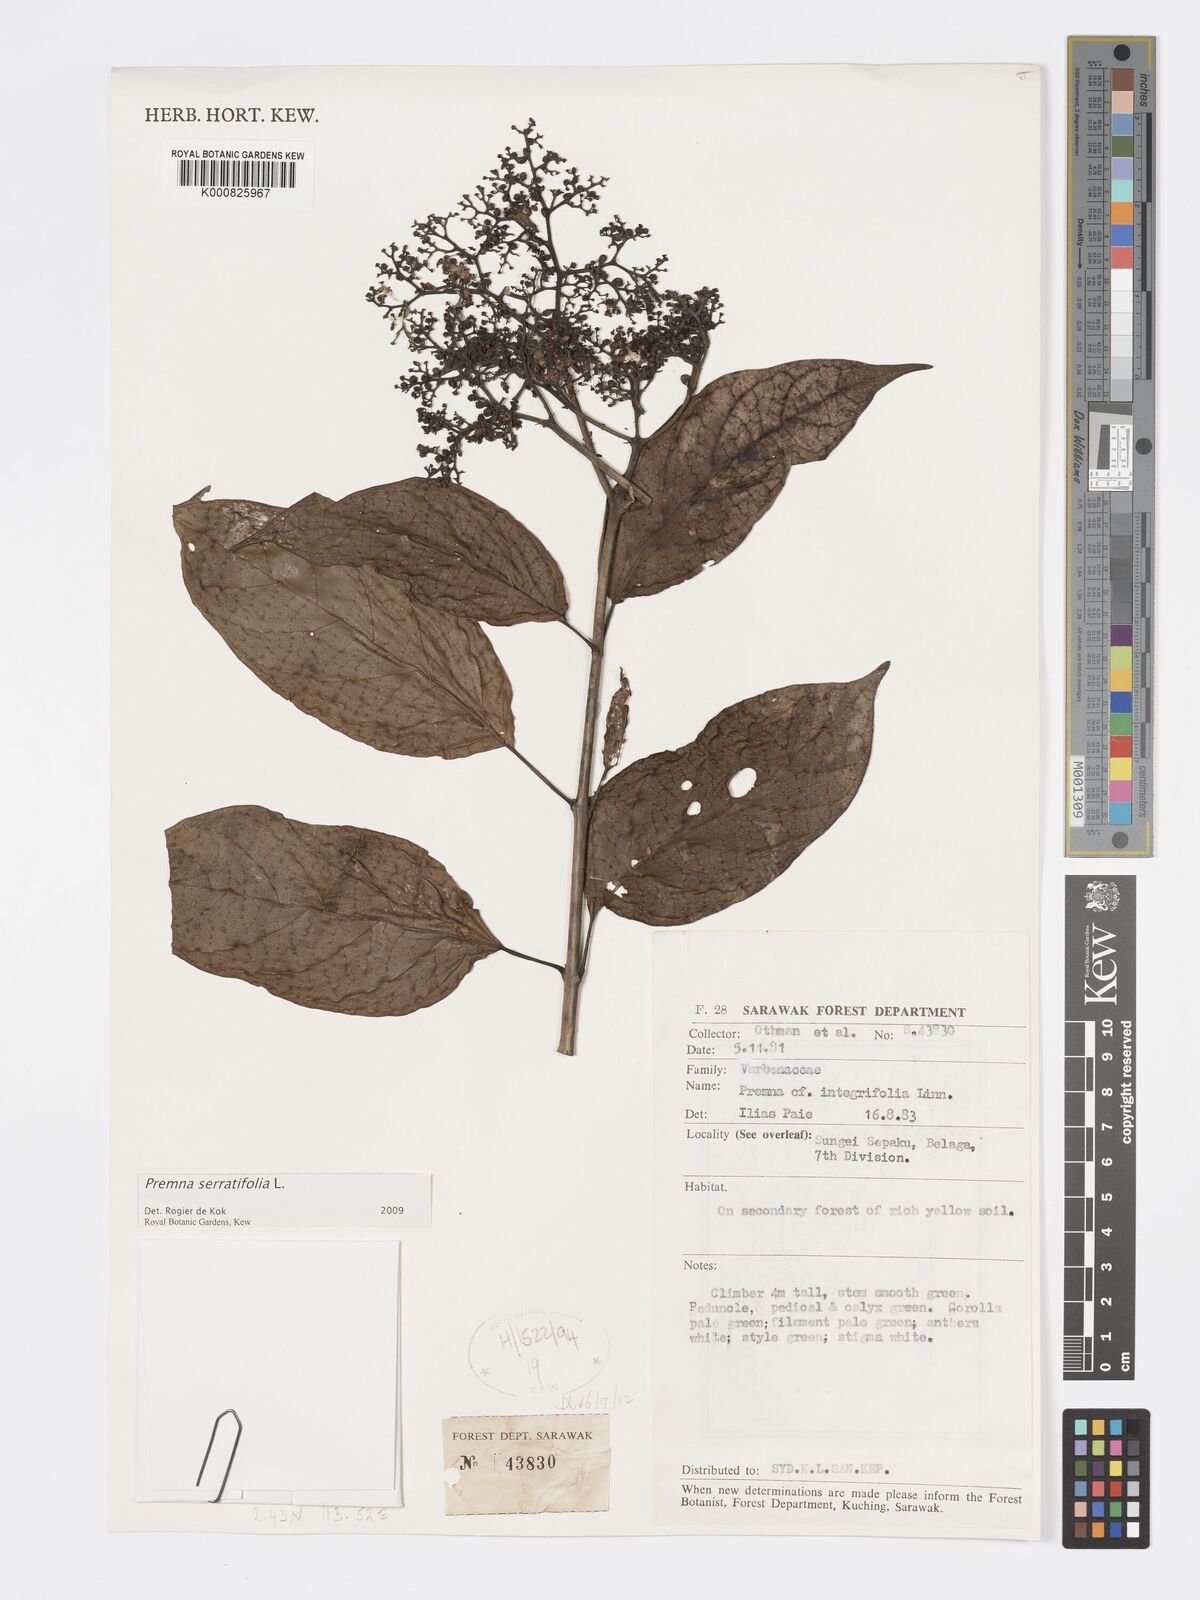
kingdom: Plantae
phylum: Tracheophyta
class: Magnoliopsida
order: Lamiales
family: Lamiaceae
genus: Premna
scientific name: Premna serratifolia
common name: Bastard guelder
